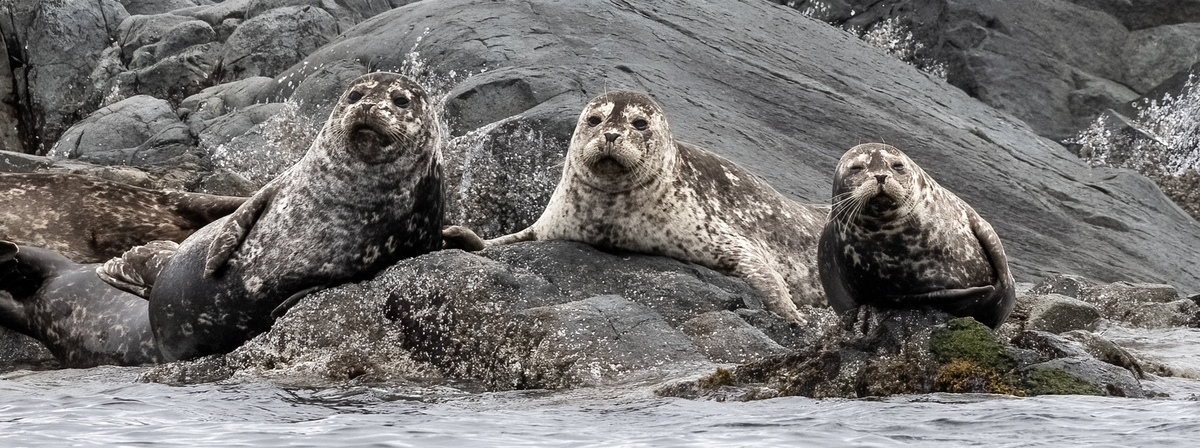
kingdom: Animalia
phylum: Chordata
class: Mammalia
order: Carnivora
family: Phocidae
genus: Phoca
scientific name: Phoca vitulina
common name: Harbor seal
